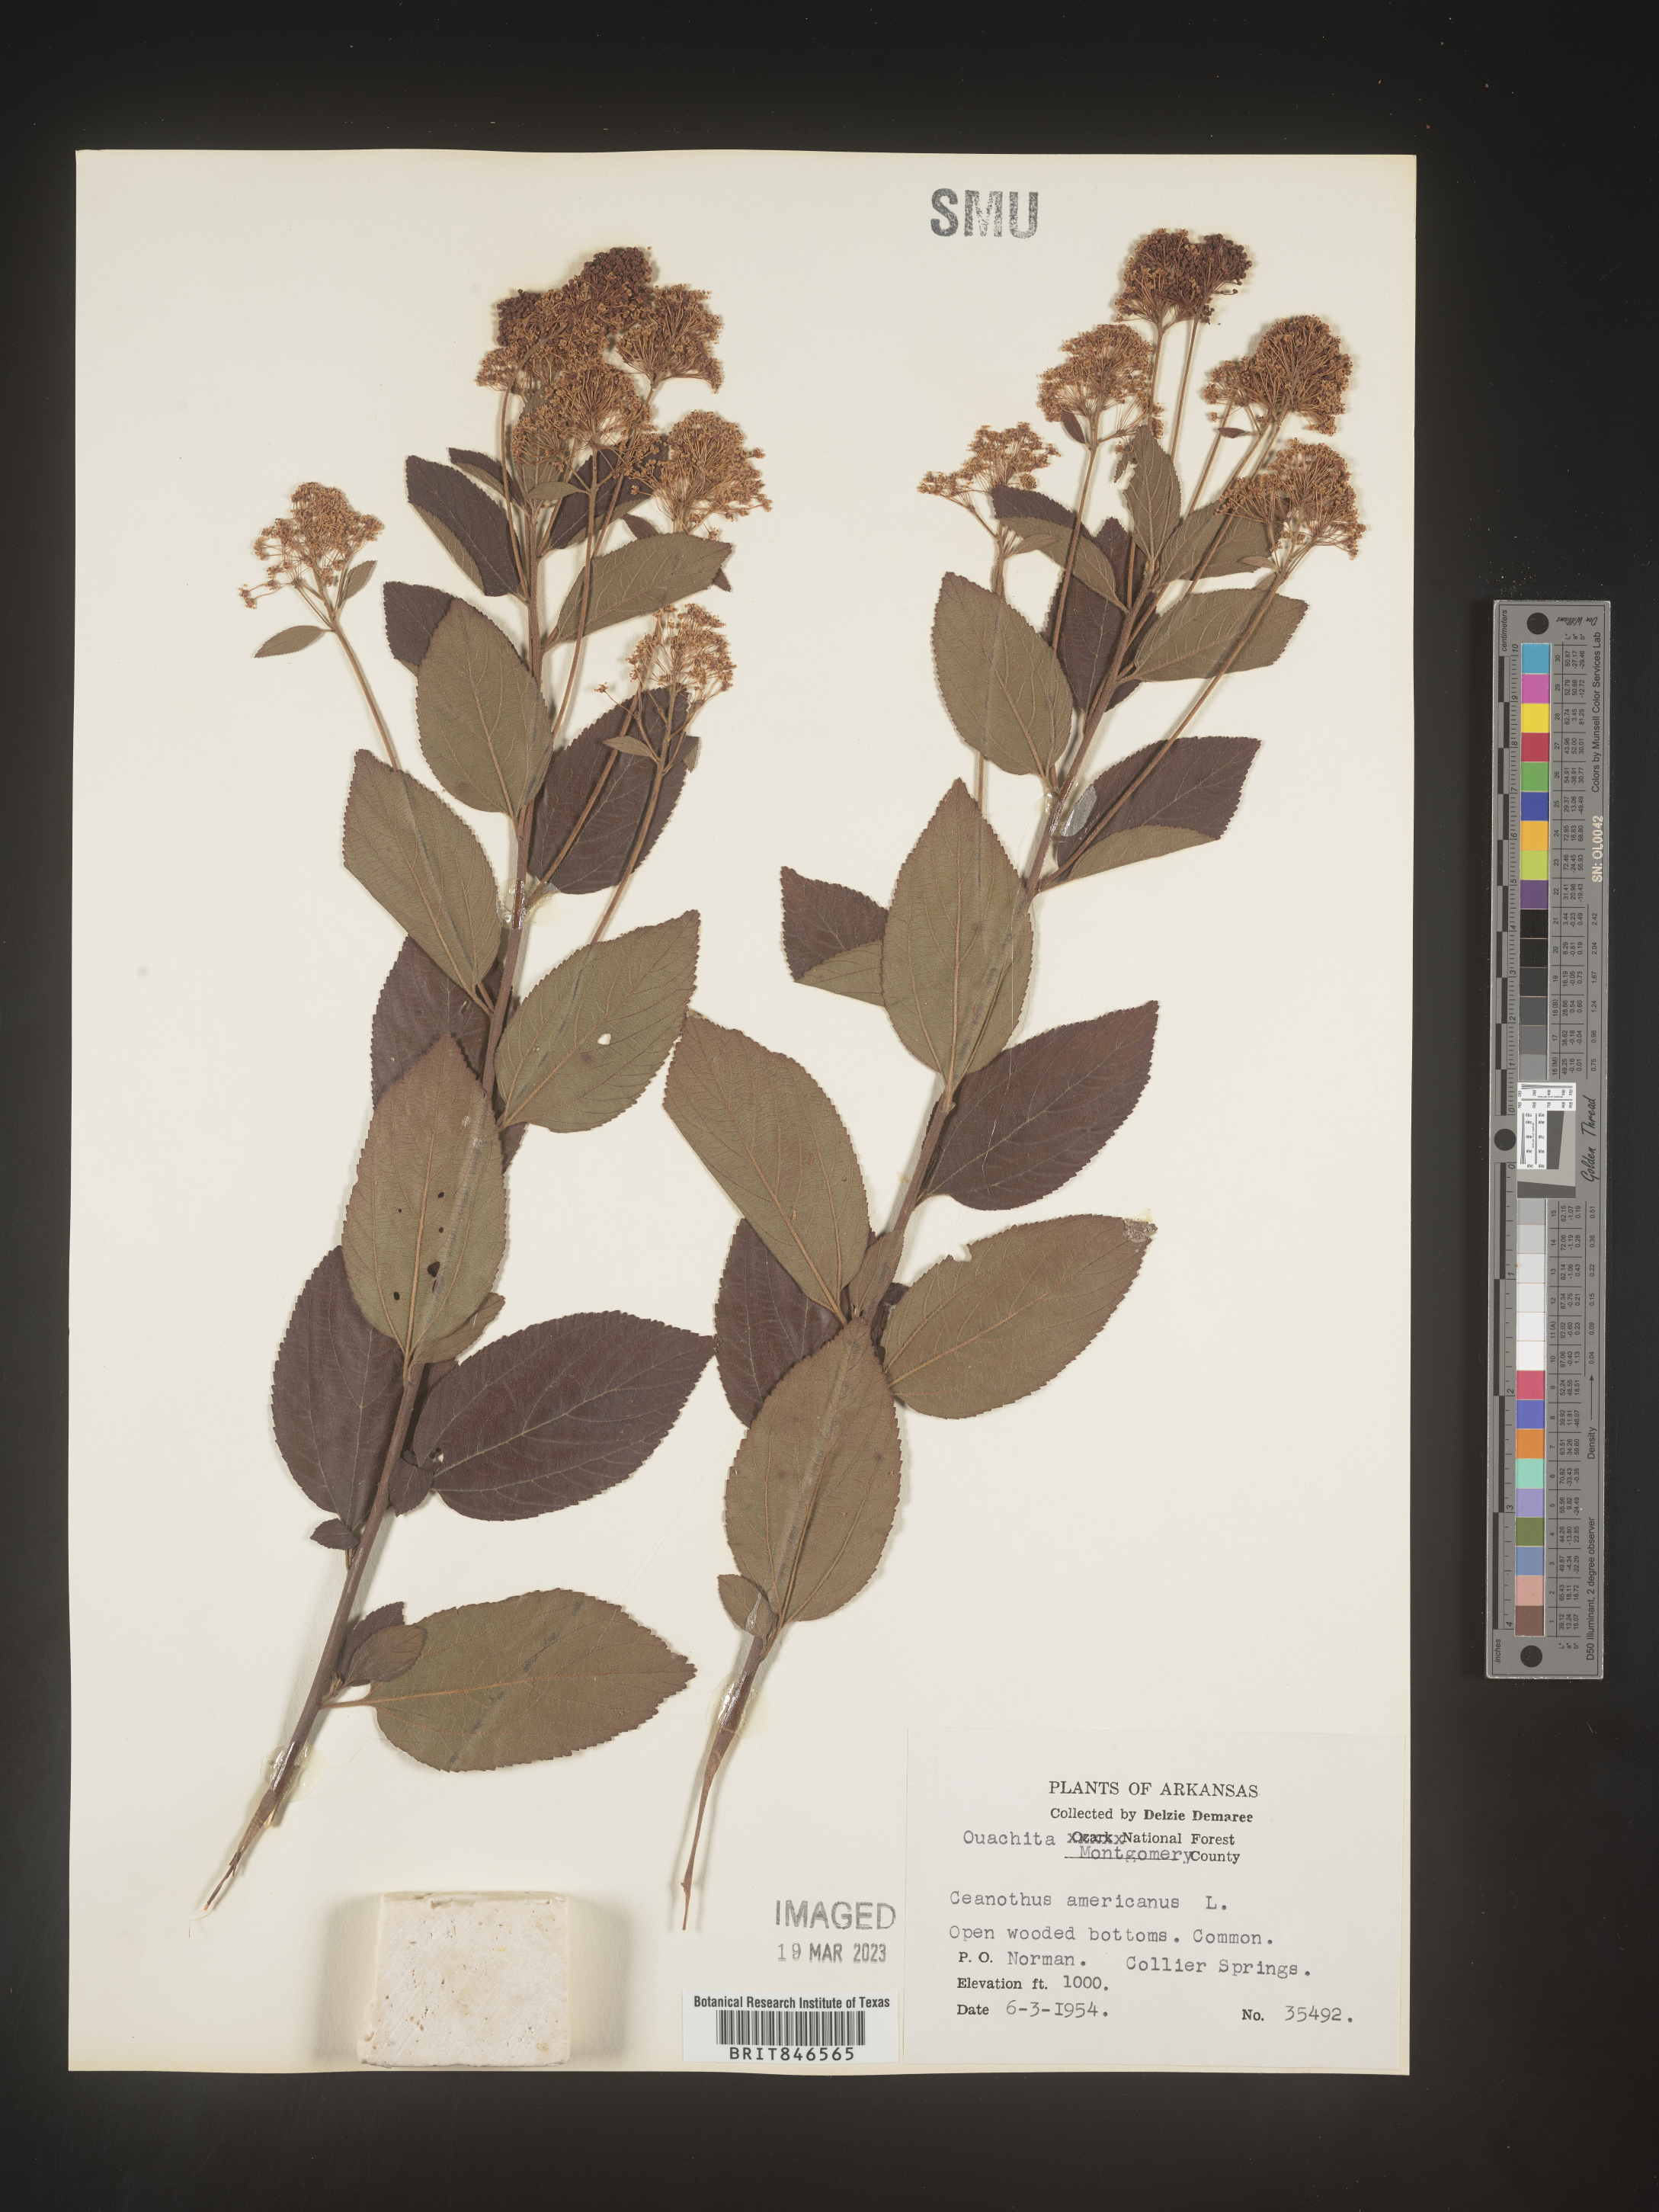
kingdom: Plantae
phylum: Tracheophyta
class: Magnoliopsida
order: Rosales
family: Rhamnaceae
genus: Ceanothus
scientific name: Ceanothus americanus
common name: Redroot
